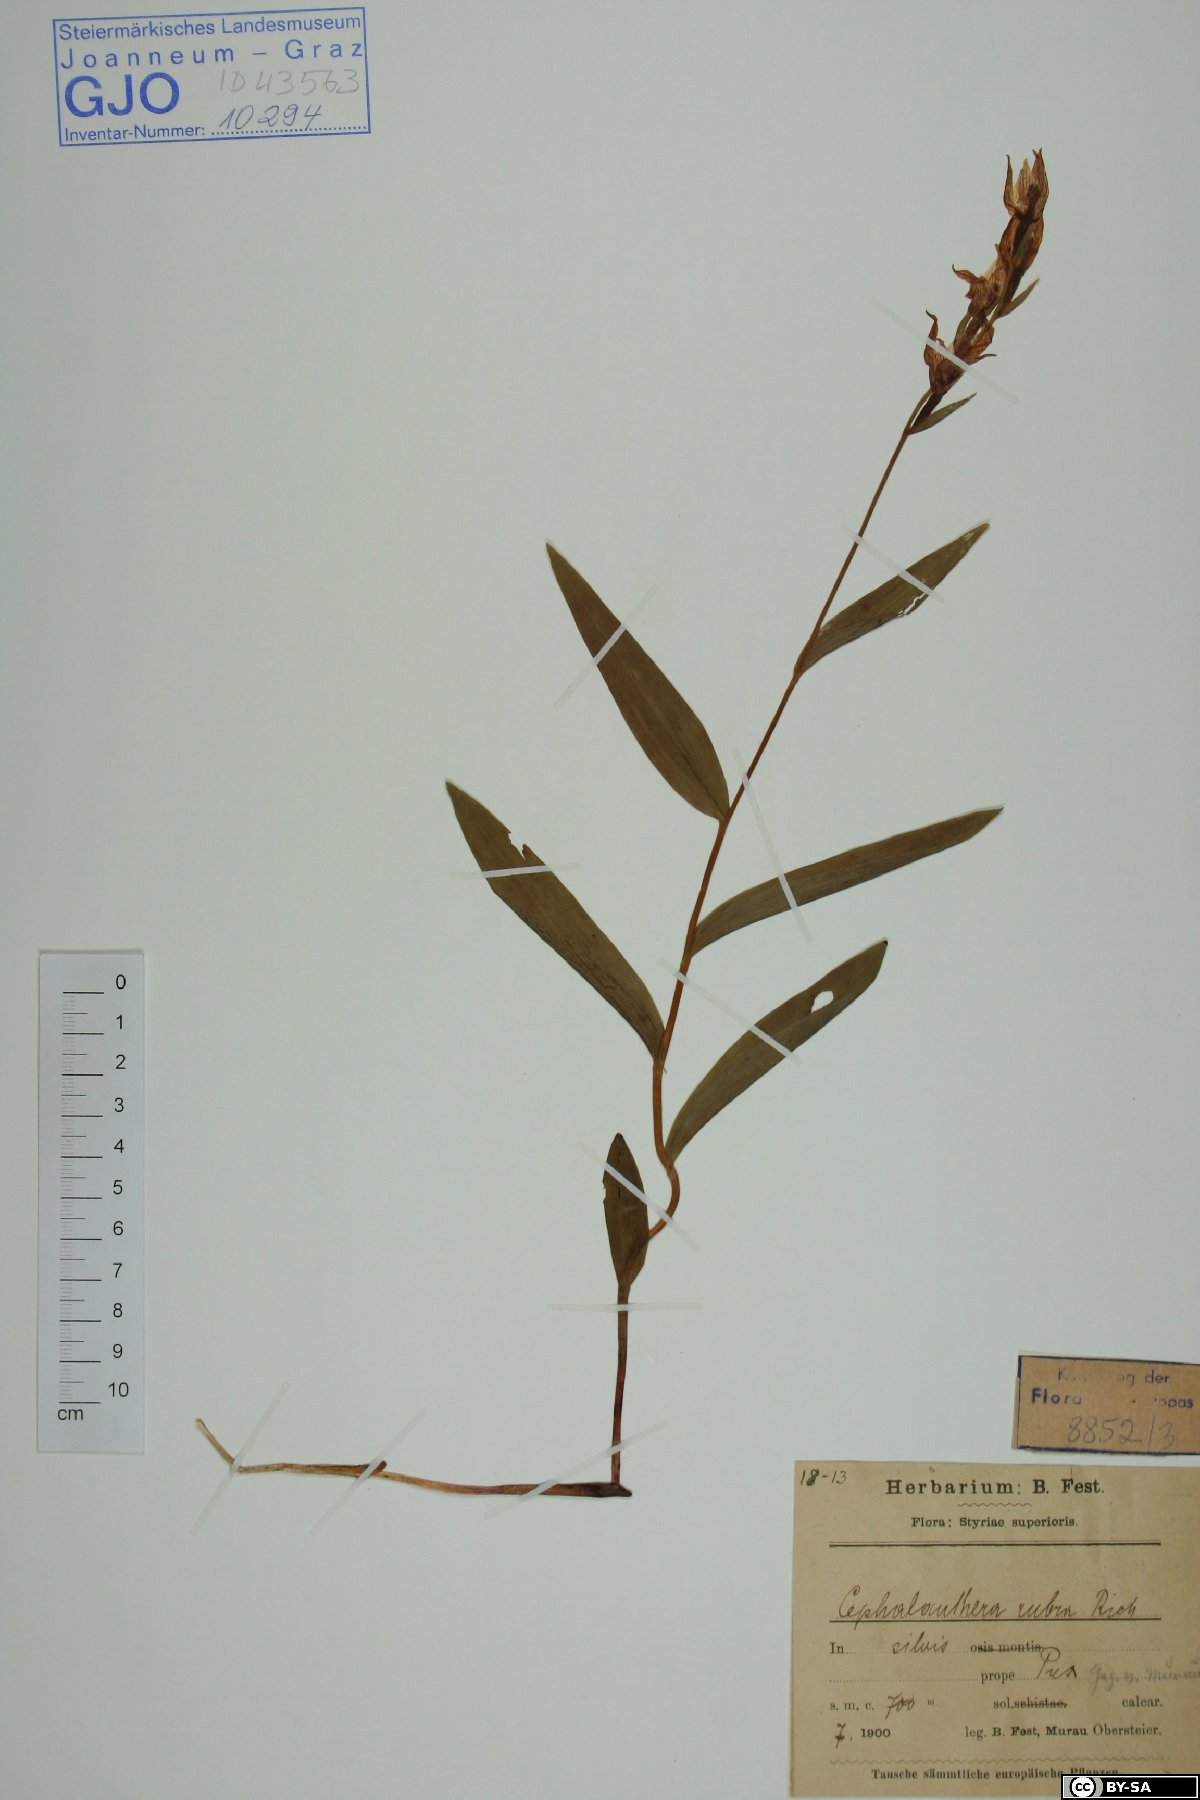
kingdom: Plantae
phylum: Tracheophyta
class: Liliopsida
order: Asparagales
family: Orchidaceae
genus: Cephalanthera
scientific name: Cephalanthera rubra
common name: Red helleborine
